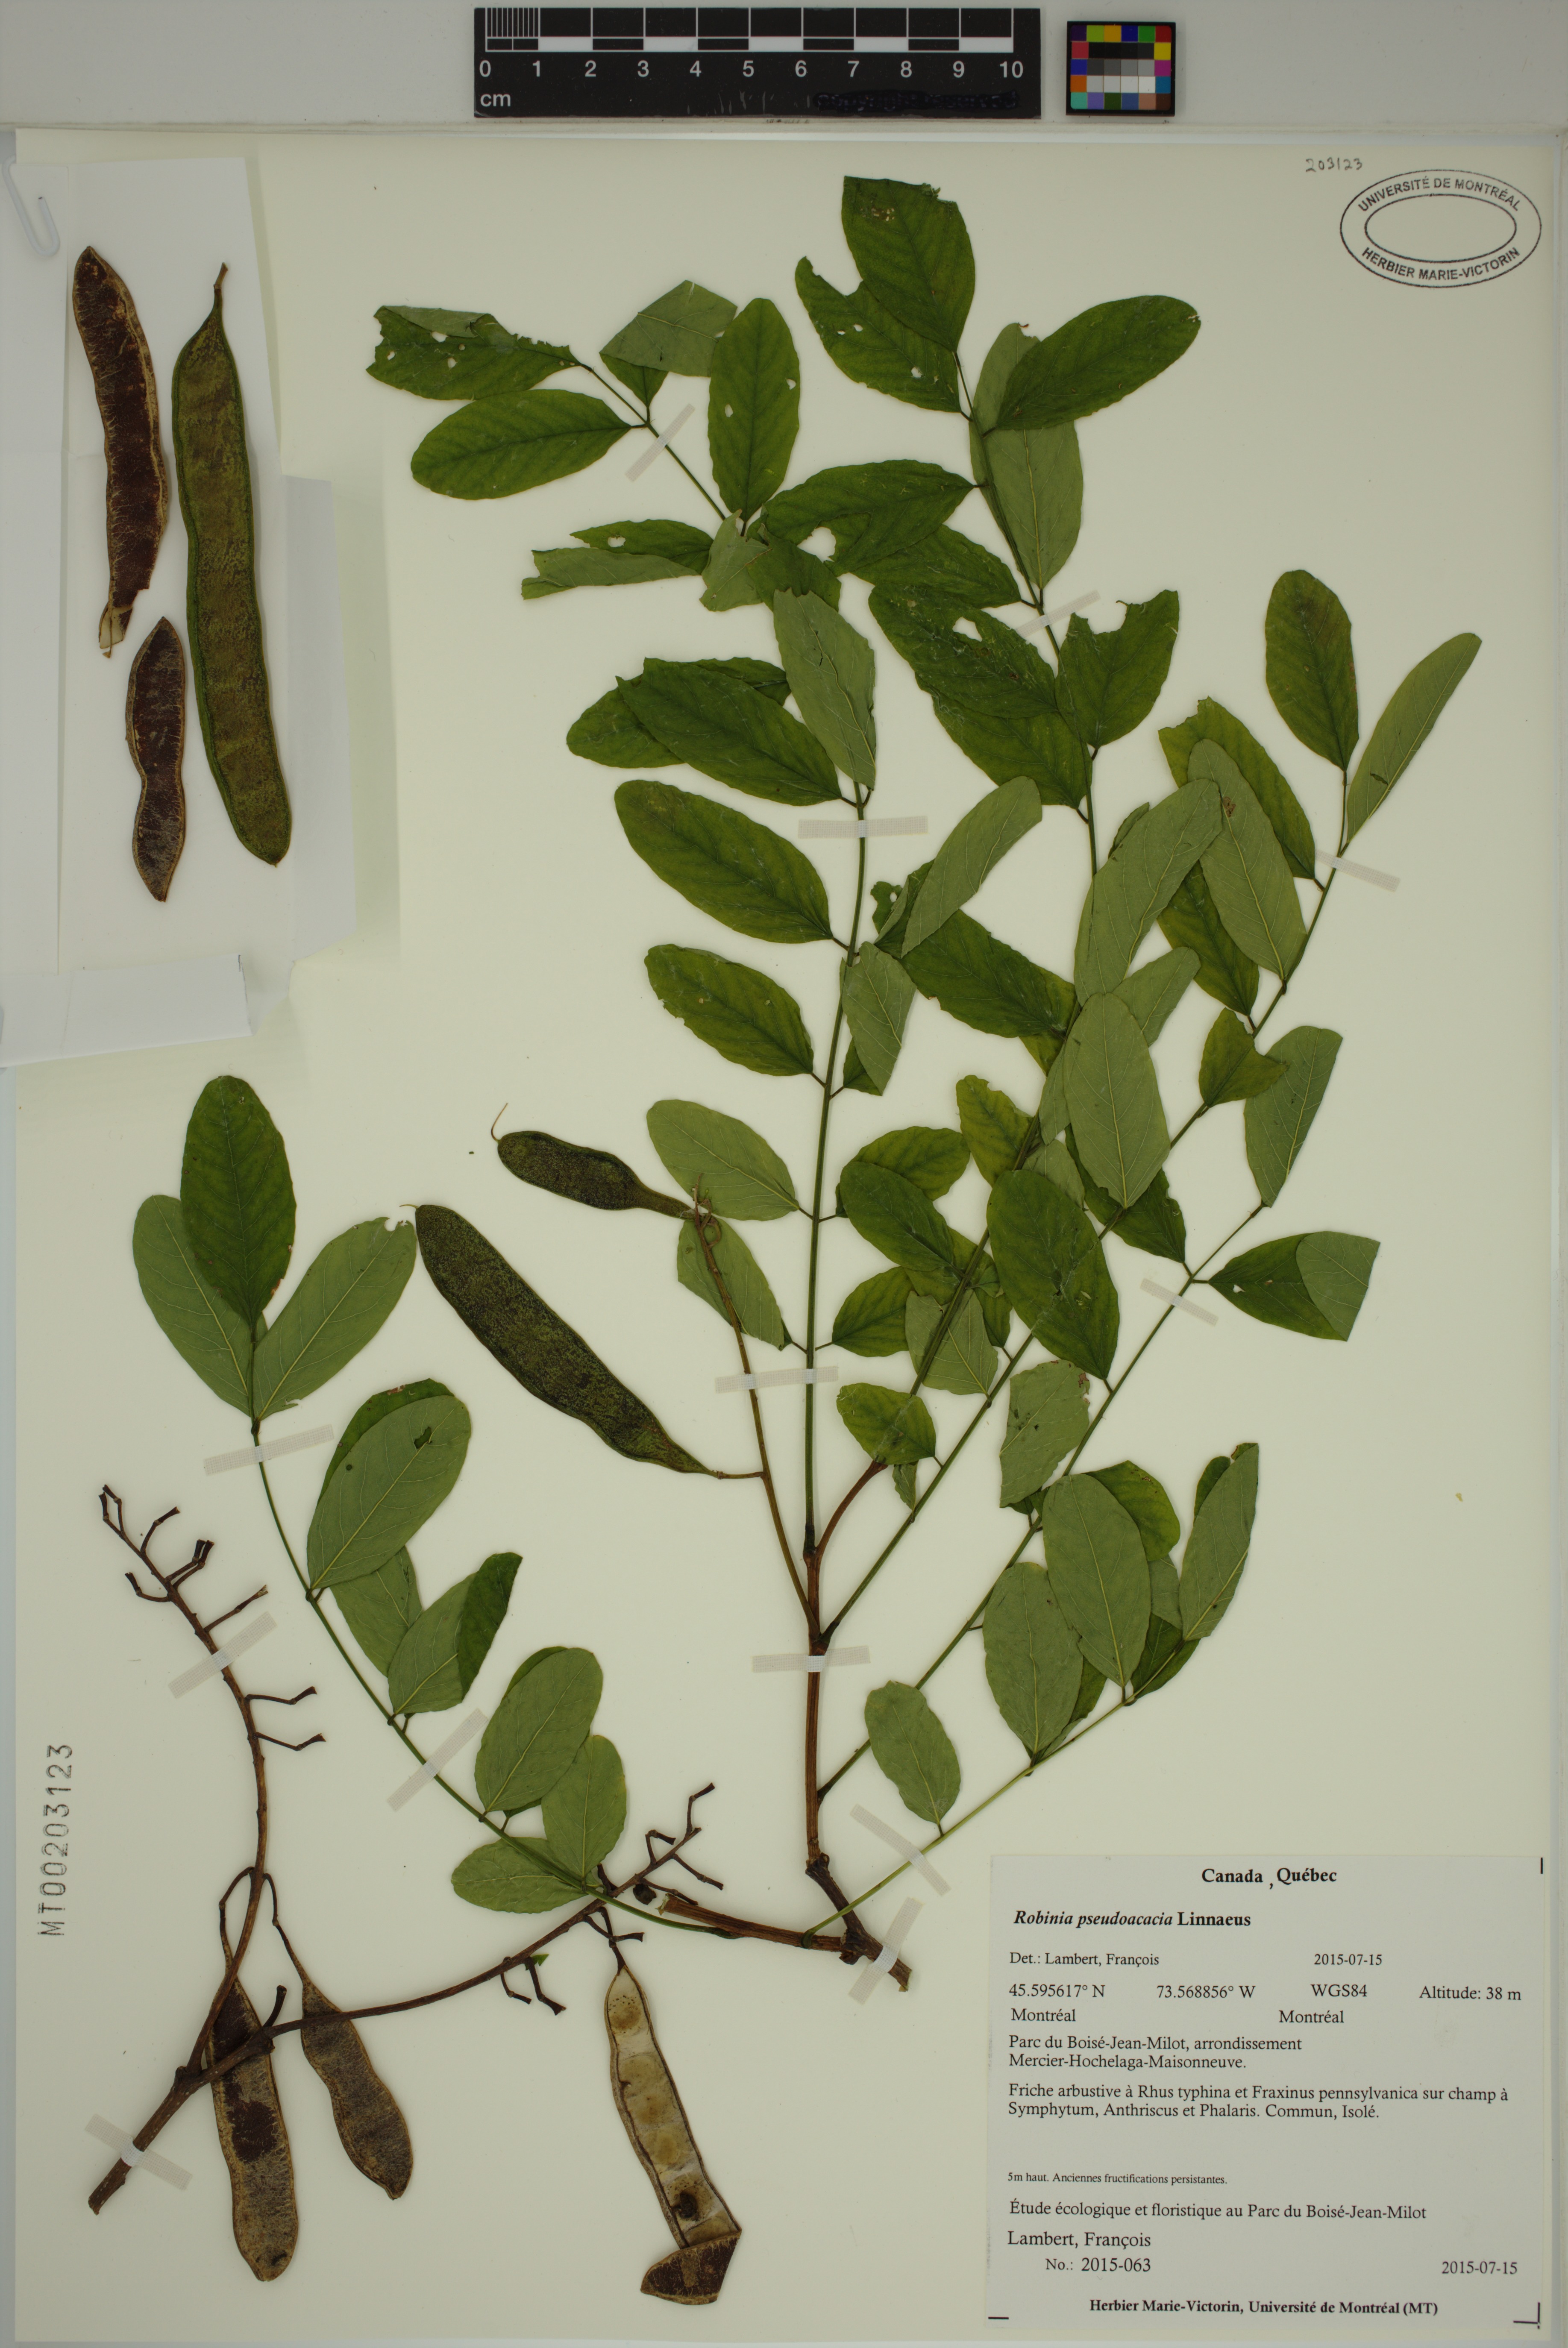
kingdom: Plantae
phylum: Tracheophyta
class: Magnoliopsida
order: Fabales
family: Fabaceae
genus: Robinia
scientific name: Robinia pseudoacacia
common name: Black locust
